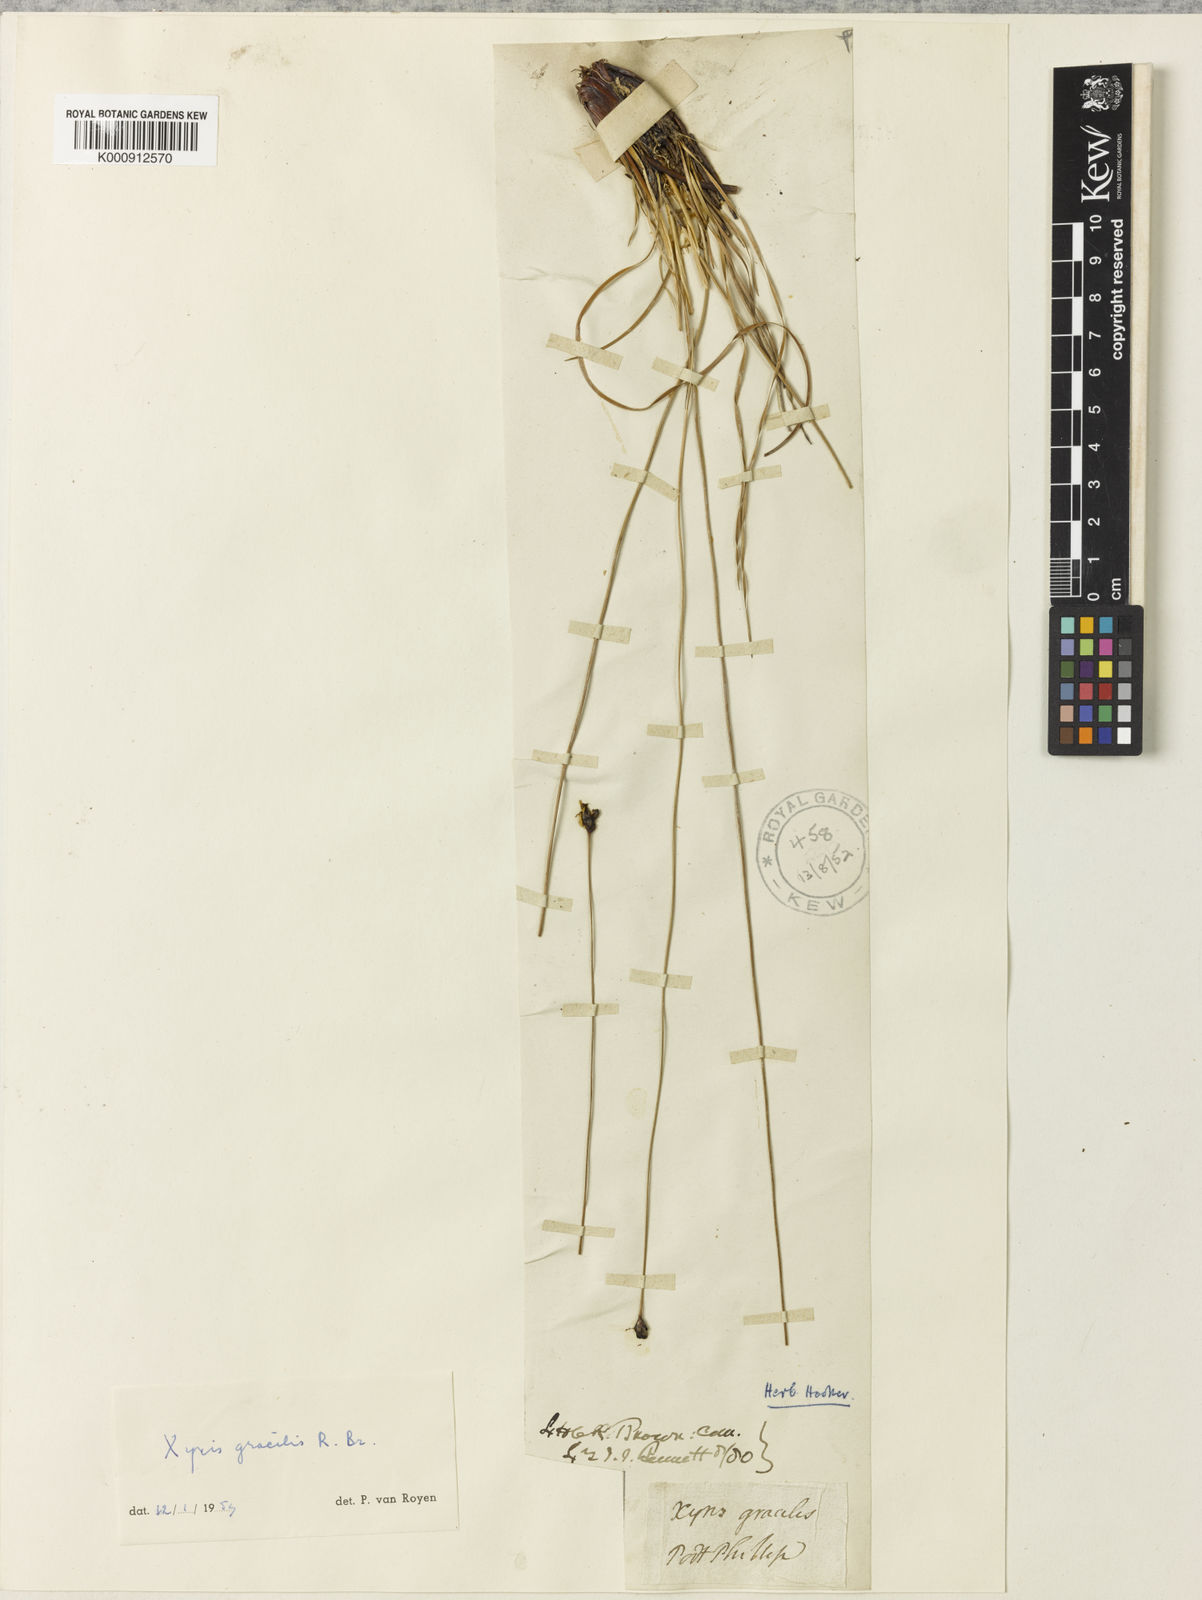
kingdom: Plantae
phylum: Tracheophyta
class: Liliopsida
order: Poales
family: Xyridaceae
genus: Xyris
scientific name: Xyris gracilis
